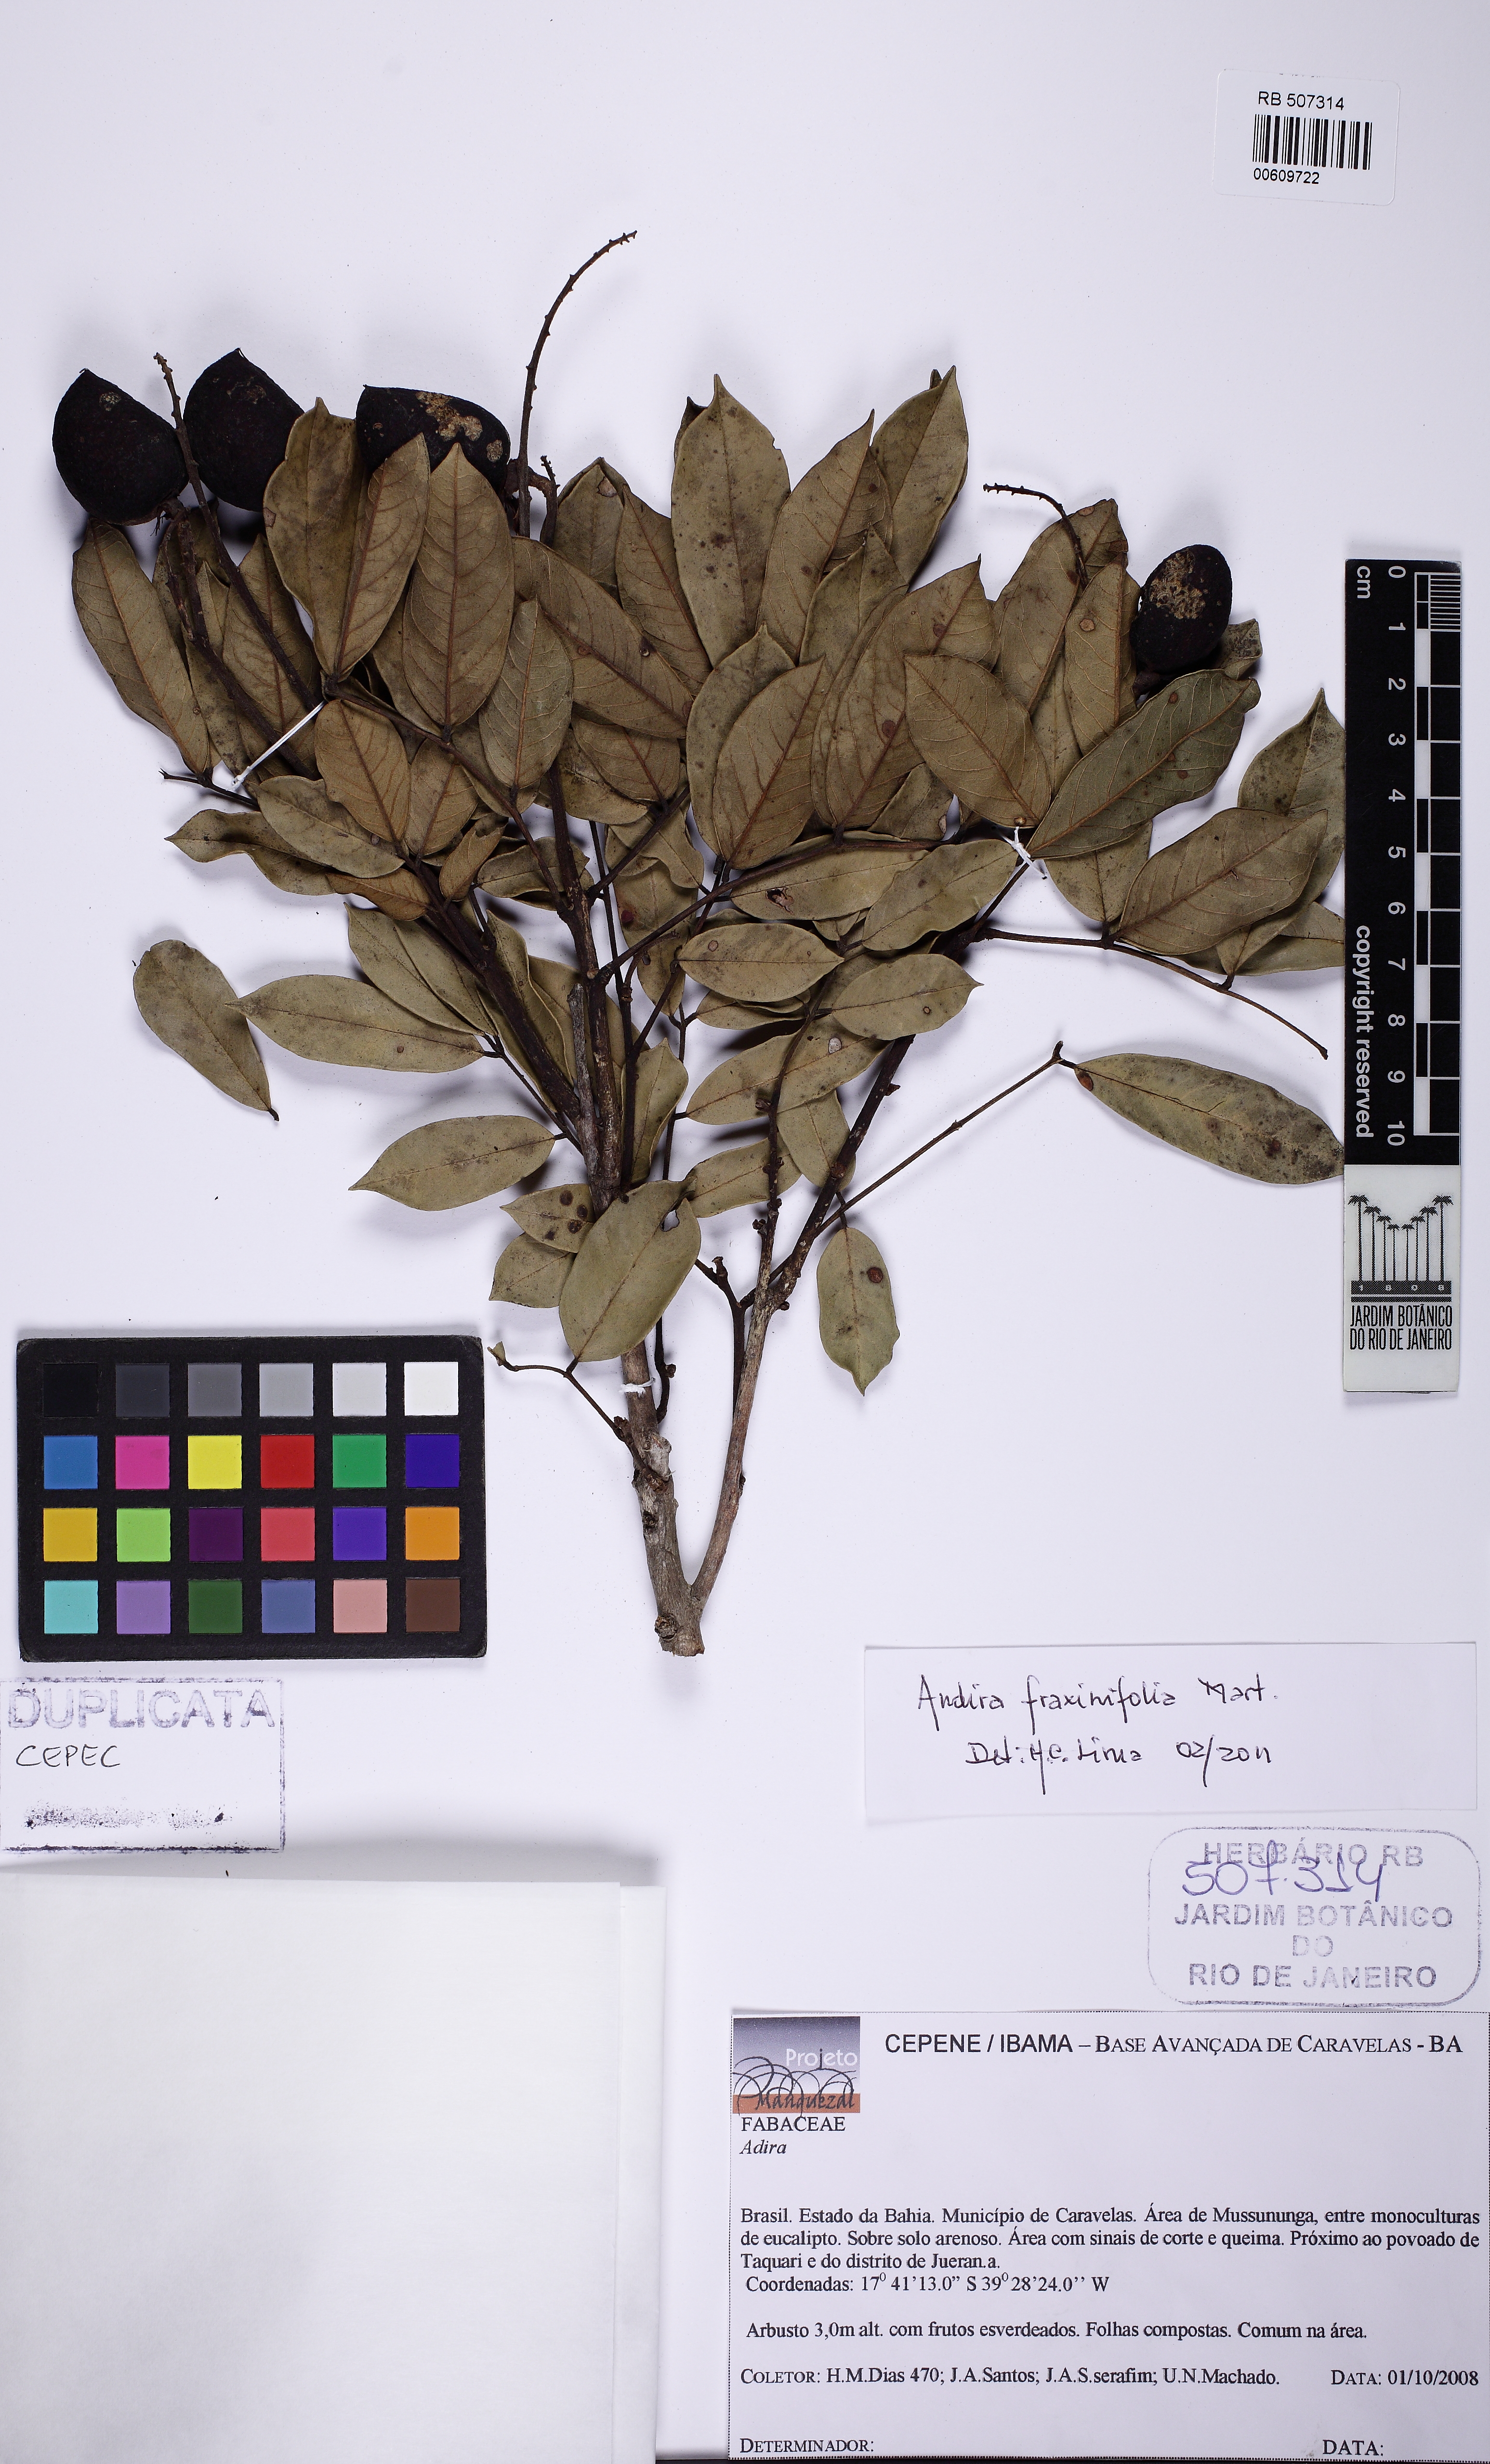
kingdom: Plantae
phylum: Tracheophyta
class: Magnoliopsida
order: Fabales
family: Fabaceae
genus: Andira
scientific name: Andira fraxinifolia
